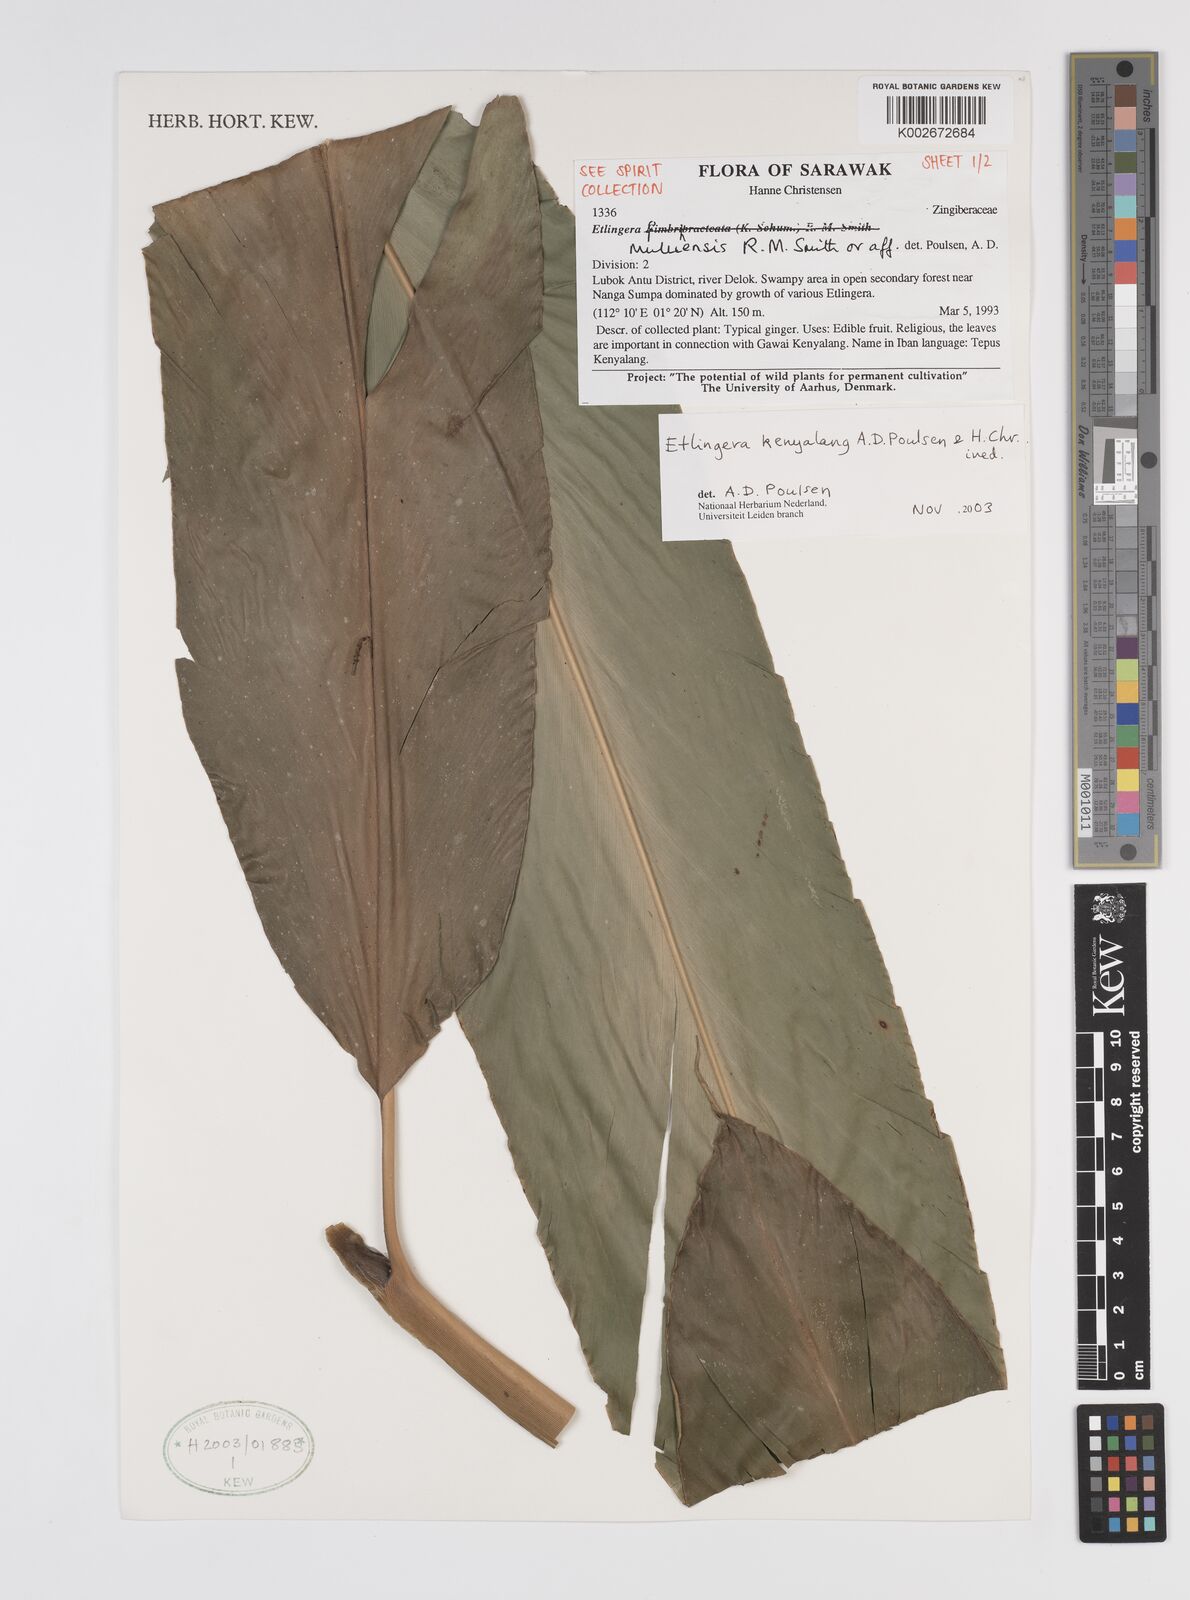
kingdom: Plantae
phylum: Tracheophyta
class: Liliopsida
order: Zingiberales
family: Zingiberaceae
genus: Etlingera
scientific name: Etlingera kenyalang
